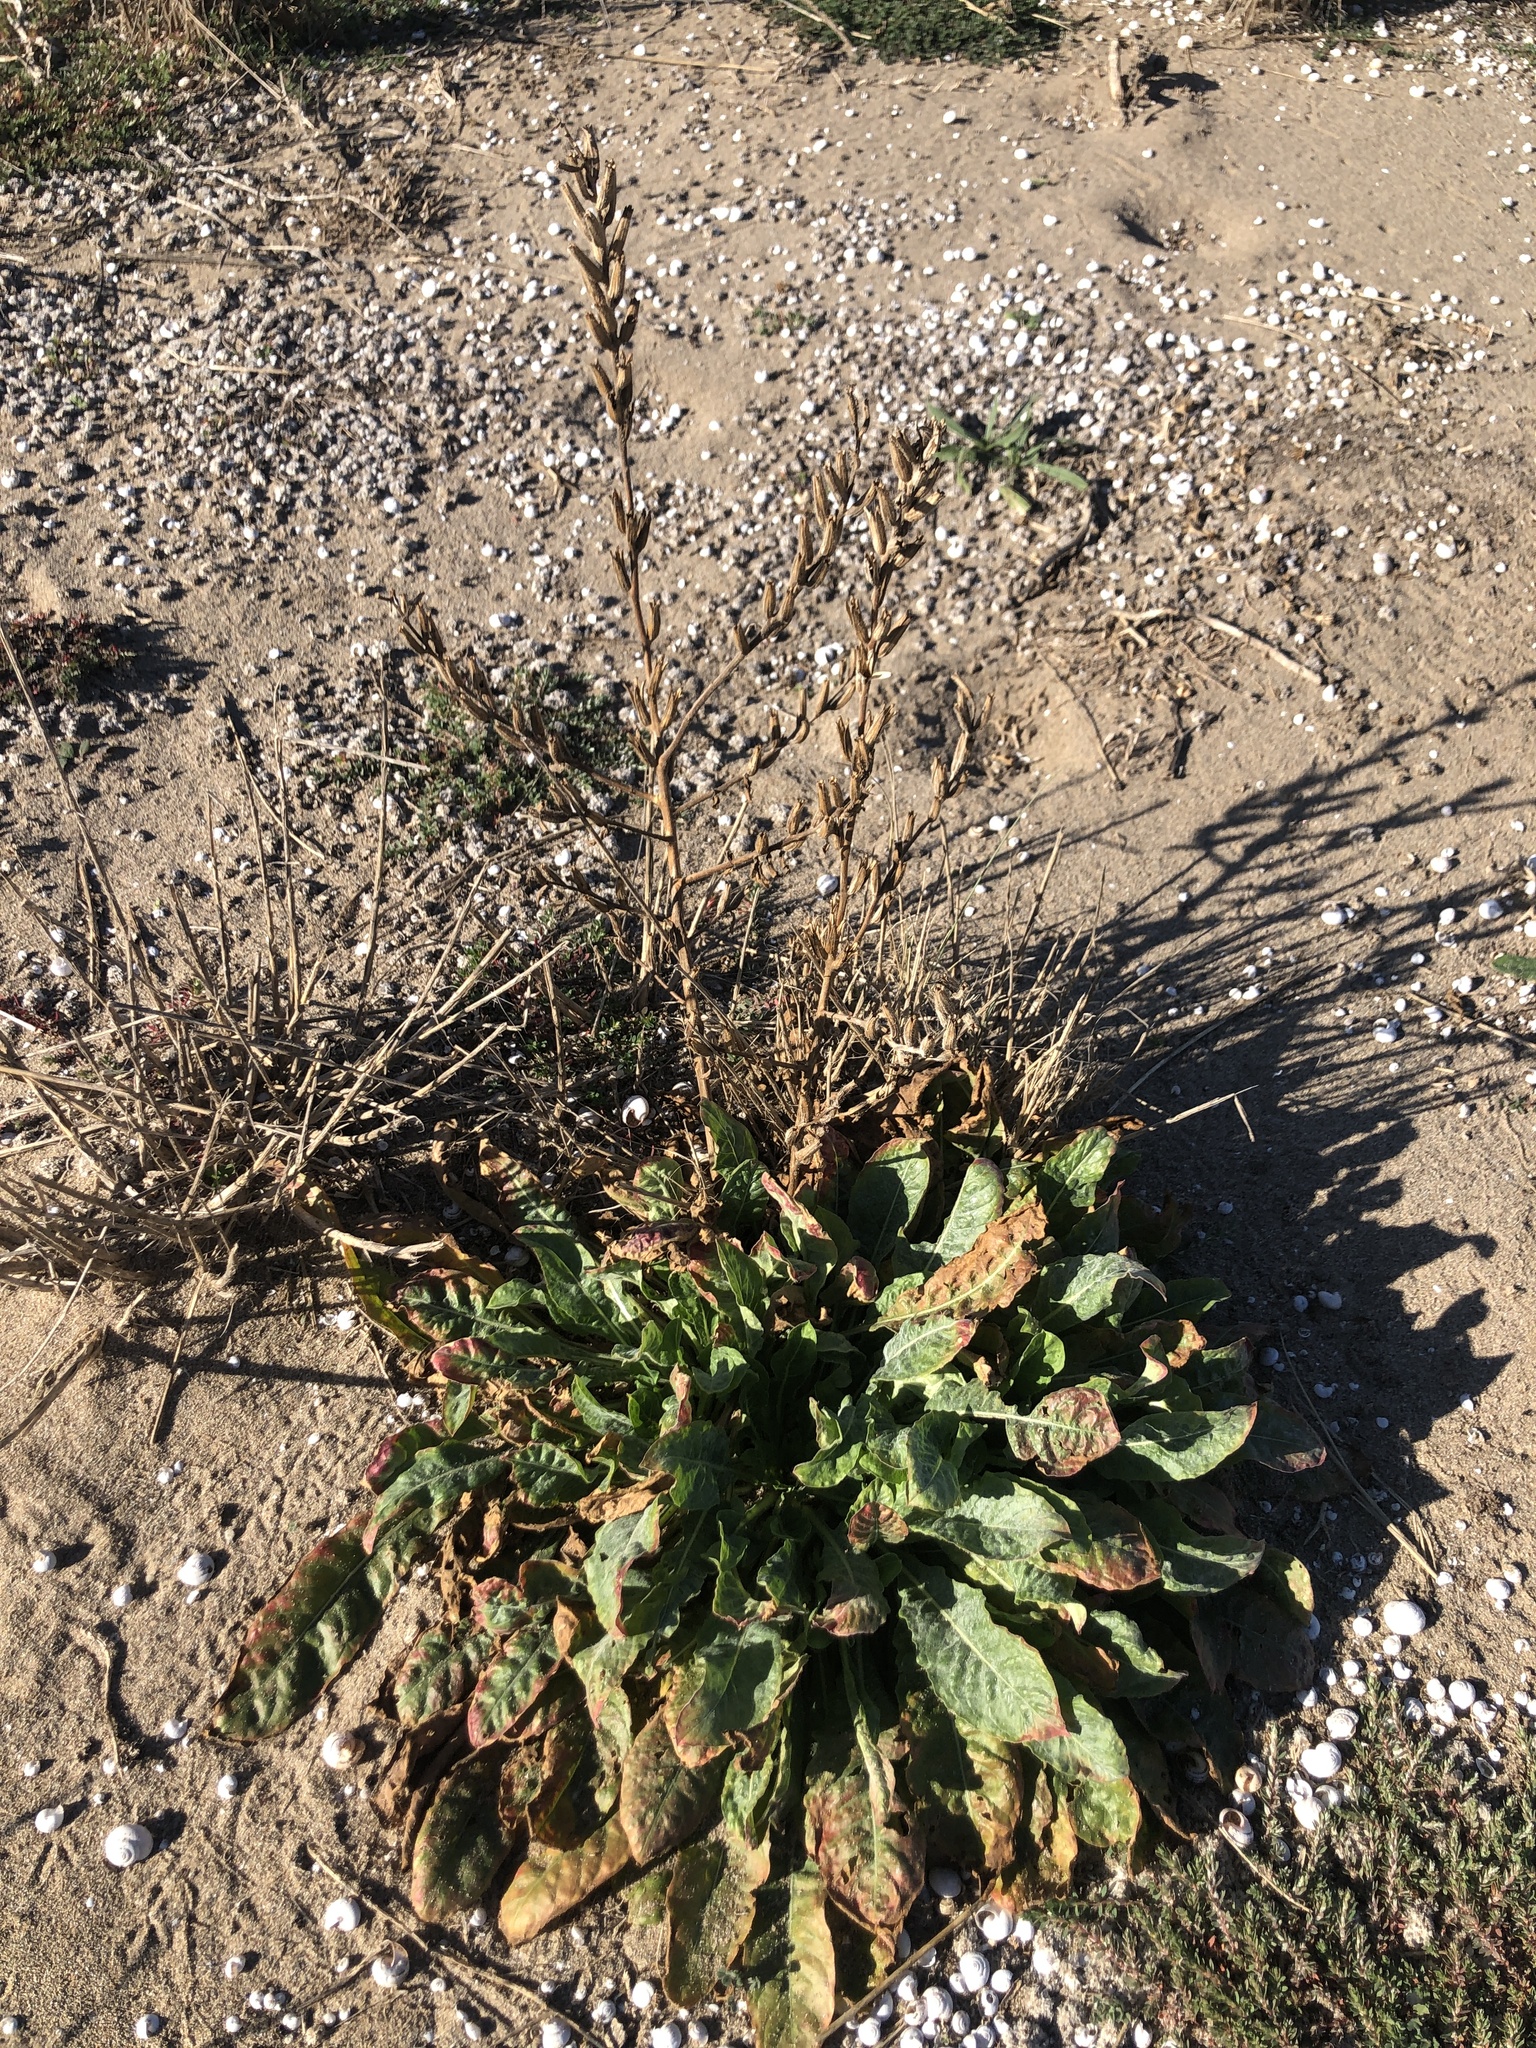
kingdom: Plantae
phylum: Tracheophyta
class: Magnoliopsida
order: Myrtales
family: Onagraceae
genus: Oenothera
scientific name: Oenothera glazioviana
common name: Large-flowered evening-primrose
